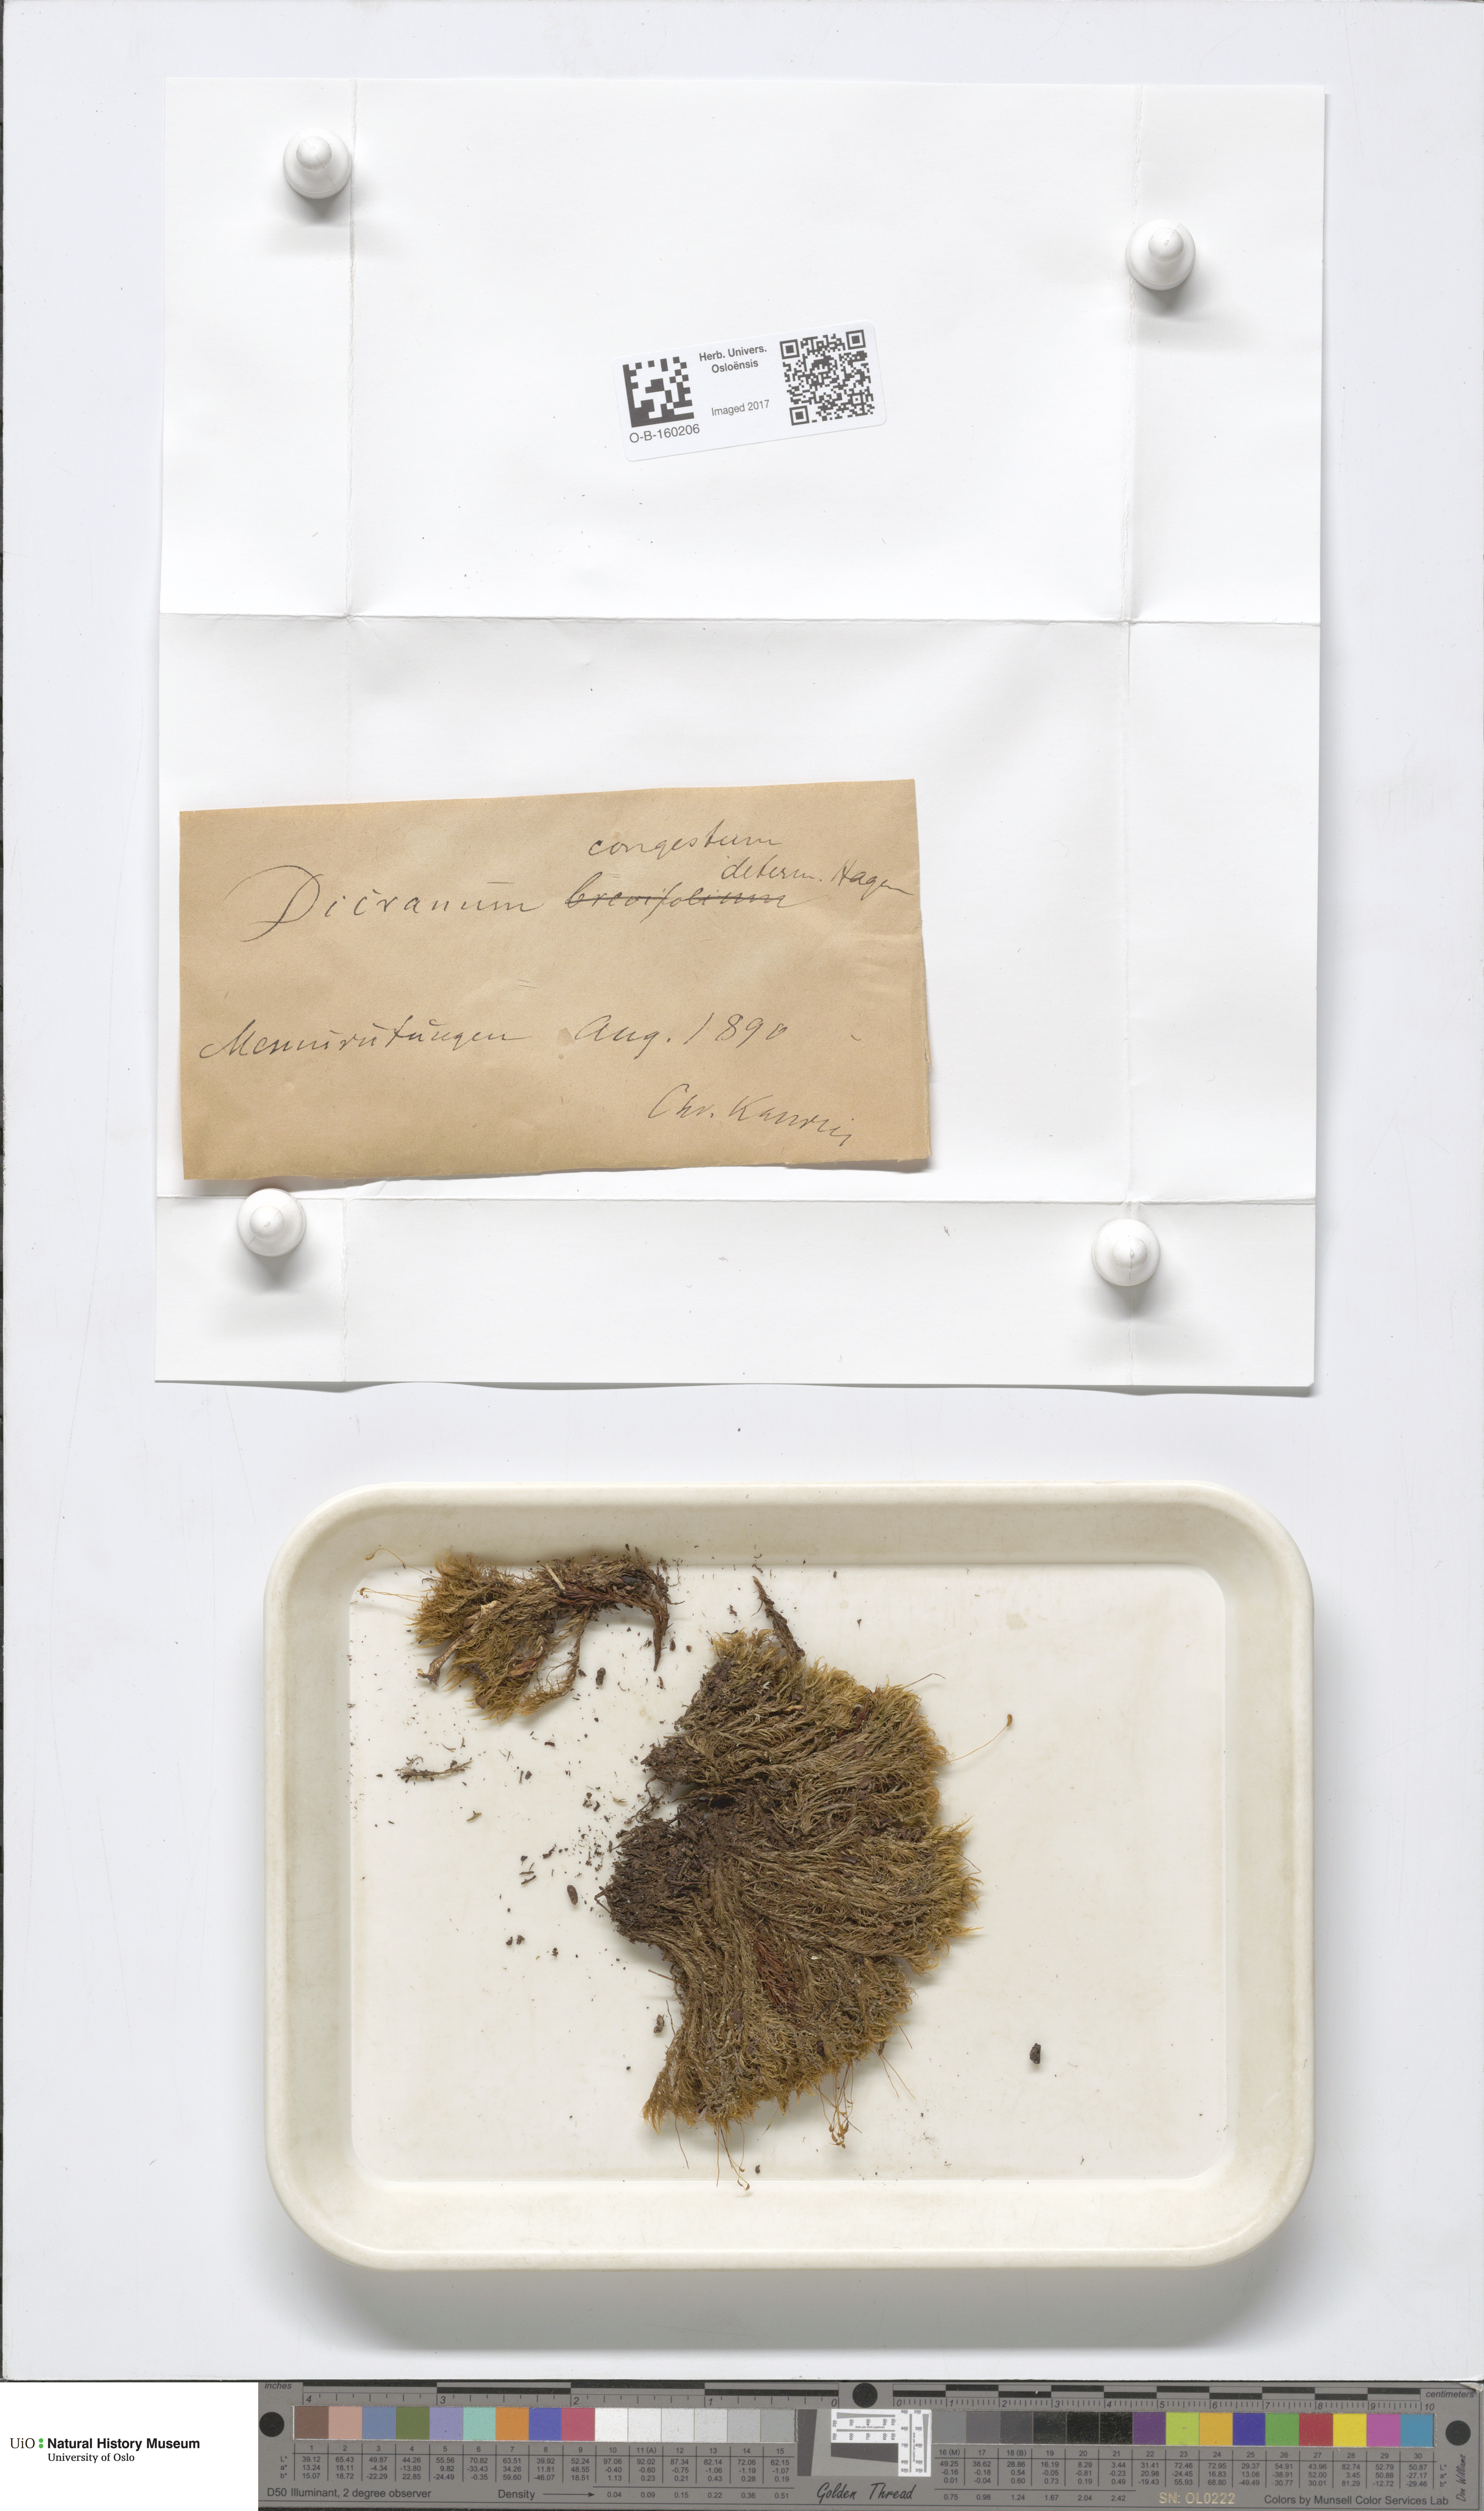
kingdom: Plantae
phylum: Bryophyta
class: Bryopsida
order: Dicranales
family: Dicranaceae
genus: Dicranum
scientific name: Dicranum flexicaule
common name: Bendy heron s-bill moss
